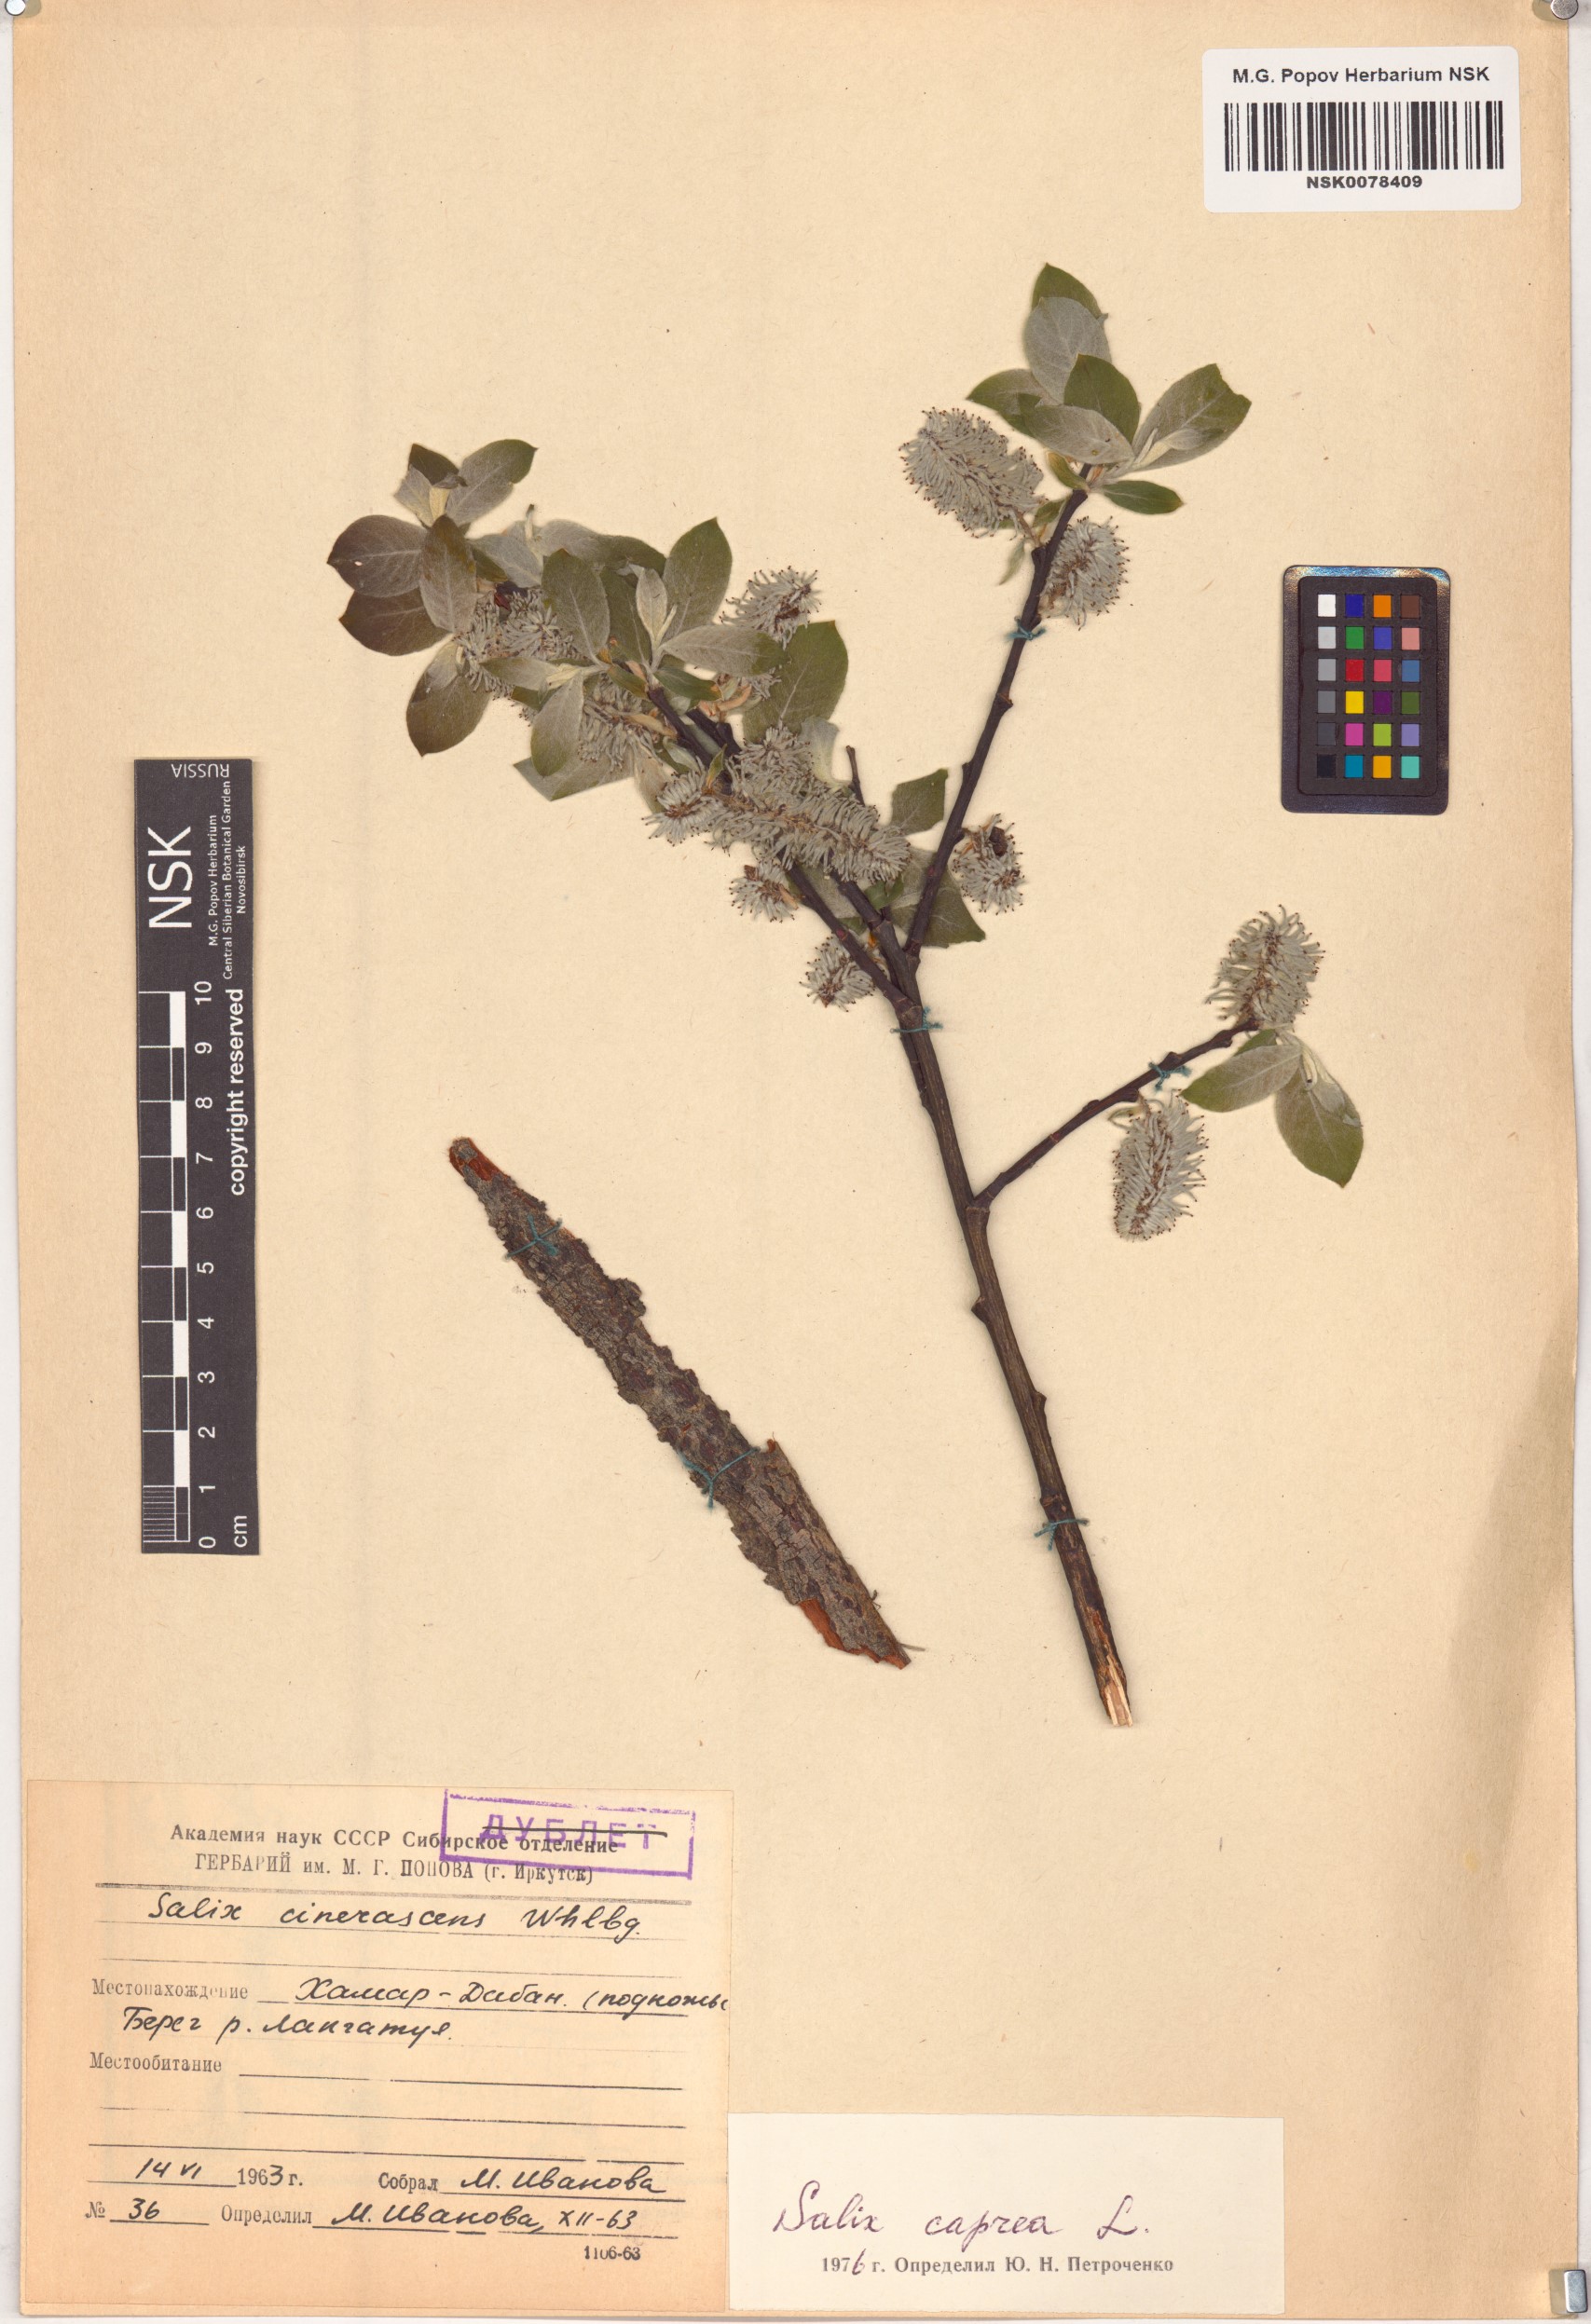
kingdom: Plantae
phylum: Tracheophyta
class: Magnoliopsida
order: Malpighiales
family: Salicaceae
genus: Salix
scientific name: Salix caprea
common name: Goat willow
